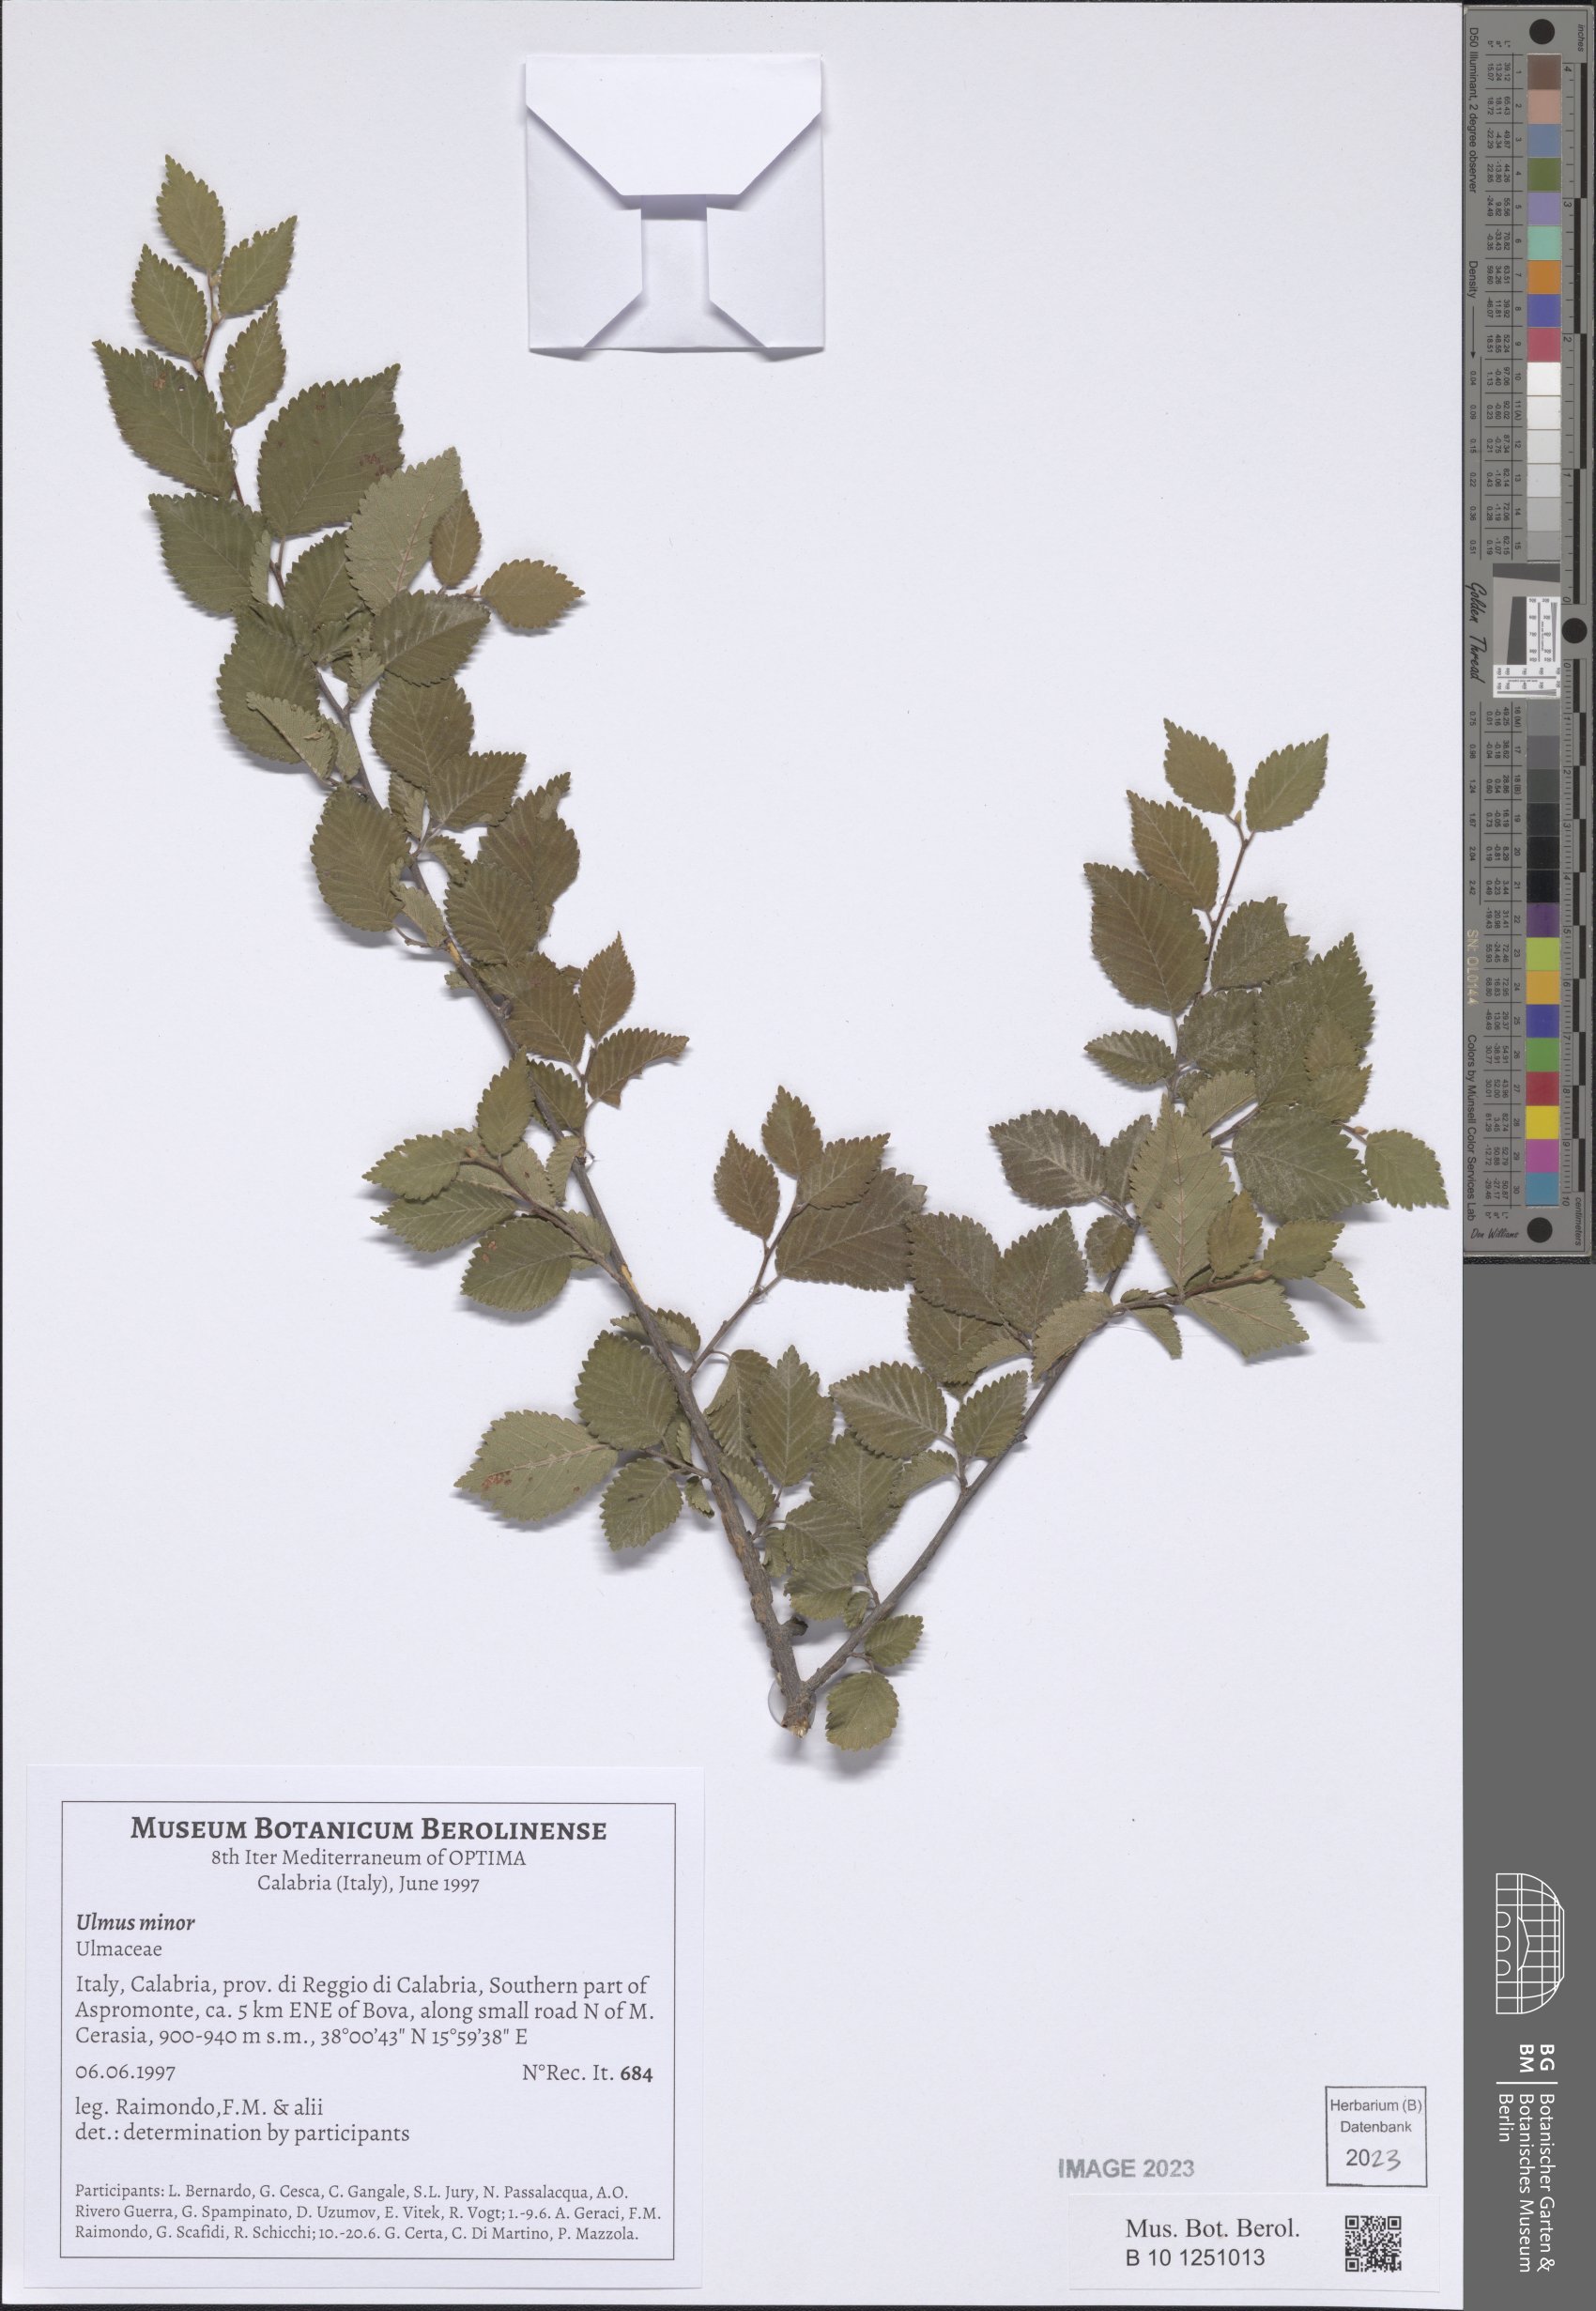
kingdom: Plantae
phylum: Tracheophyta
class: Magnoliopsida
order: Rosales
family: Ulmaceae
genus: Ulmus
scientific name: Ulmus minor
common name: Small-leaved elm
